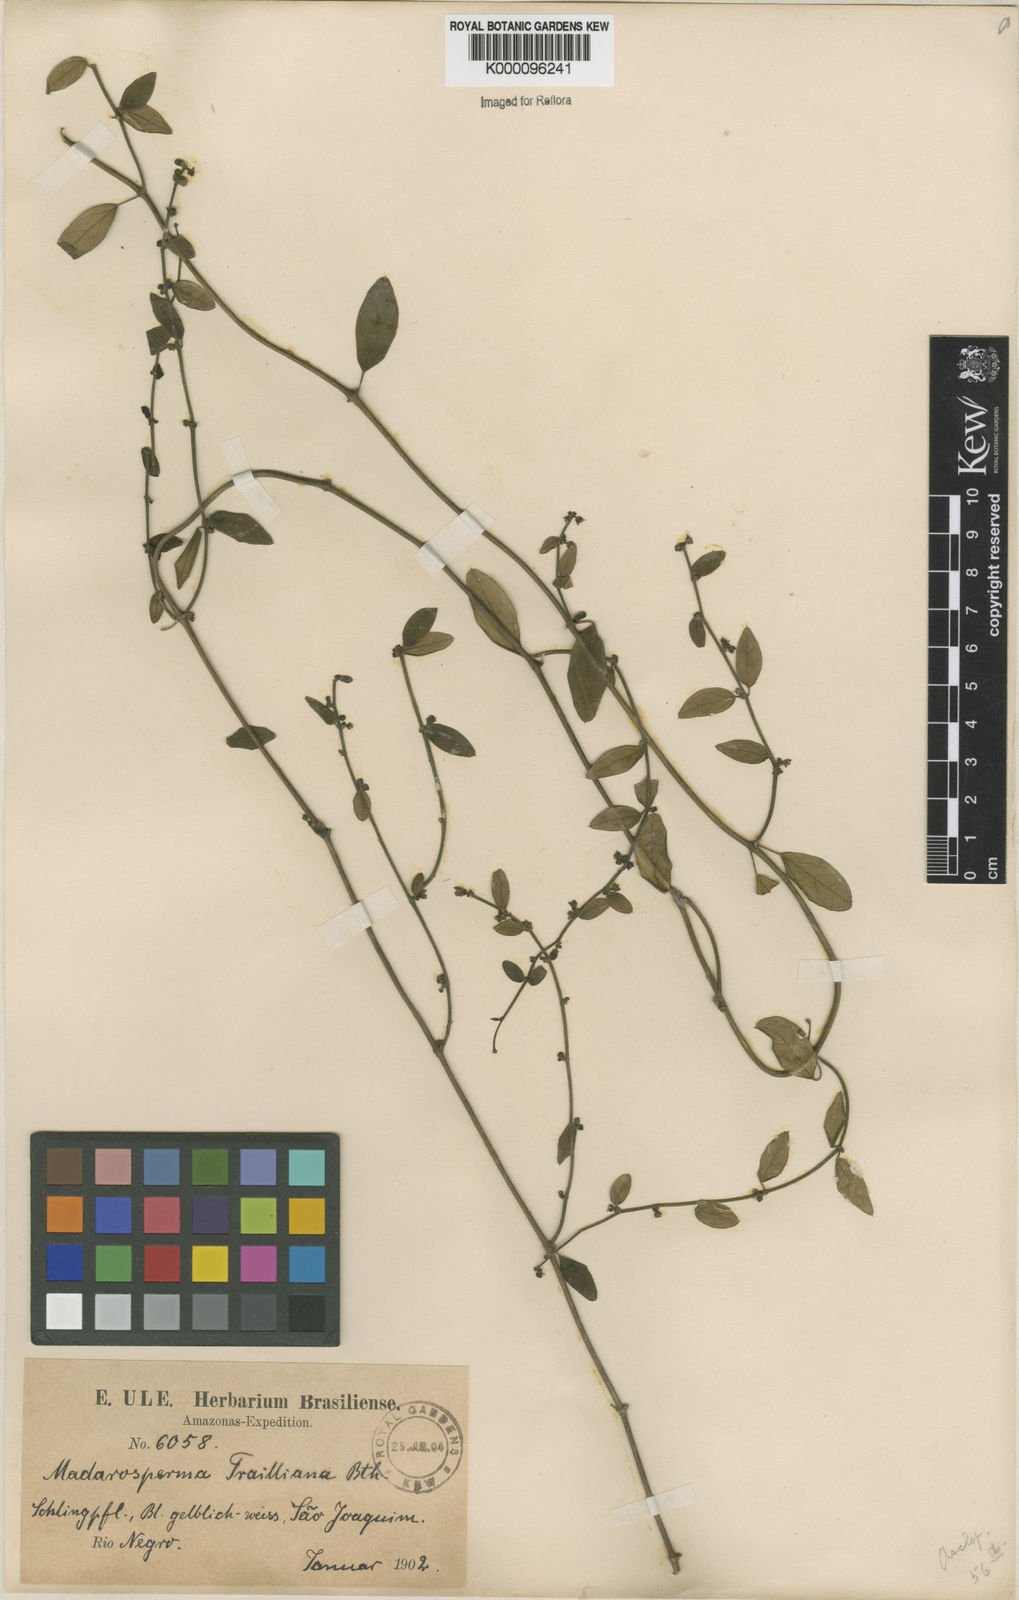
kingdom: Plantae
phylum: Tracheophyta
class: Magnoliopsida
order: Gentianales
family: Apocynaceae
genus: Tassadia
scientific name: Tassadia trailiana
